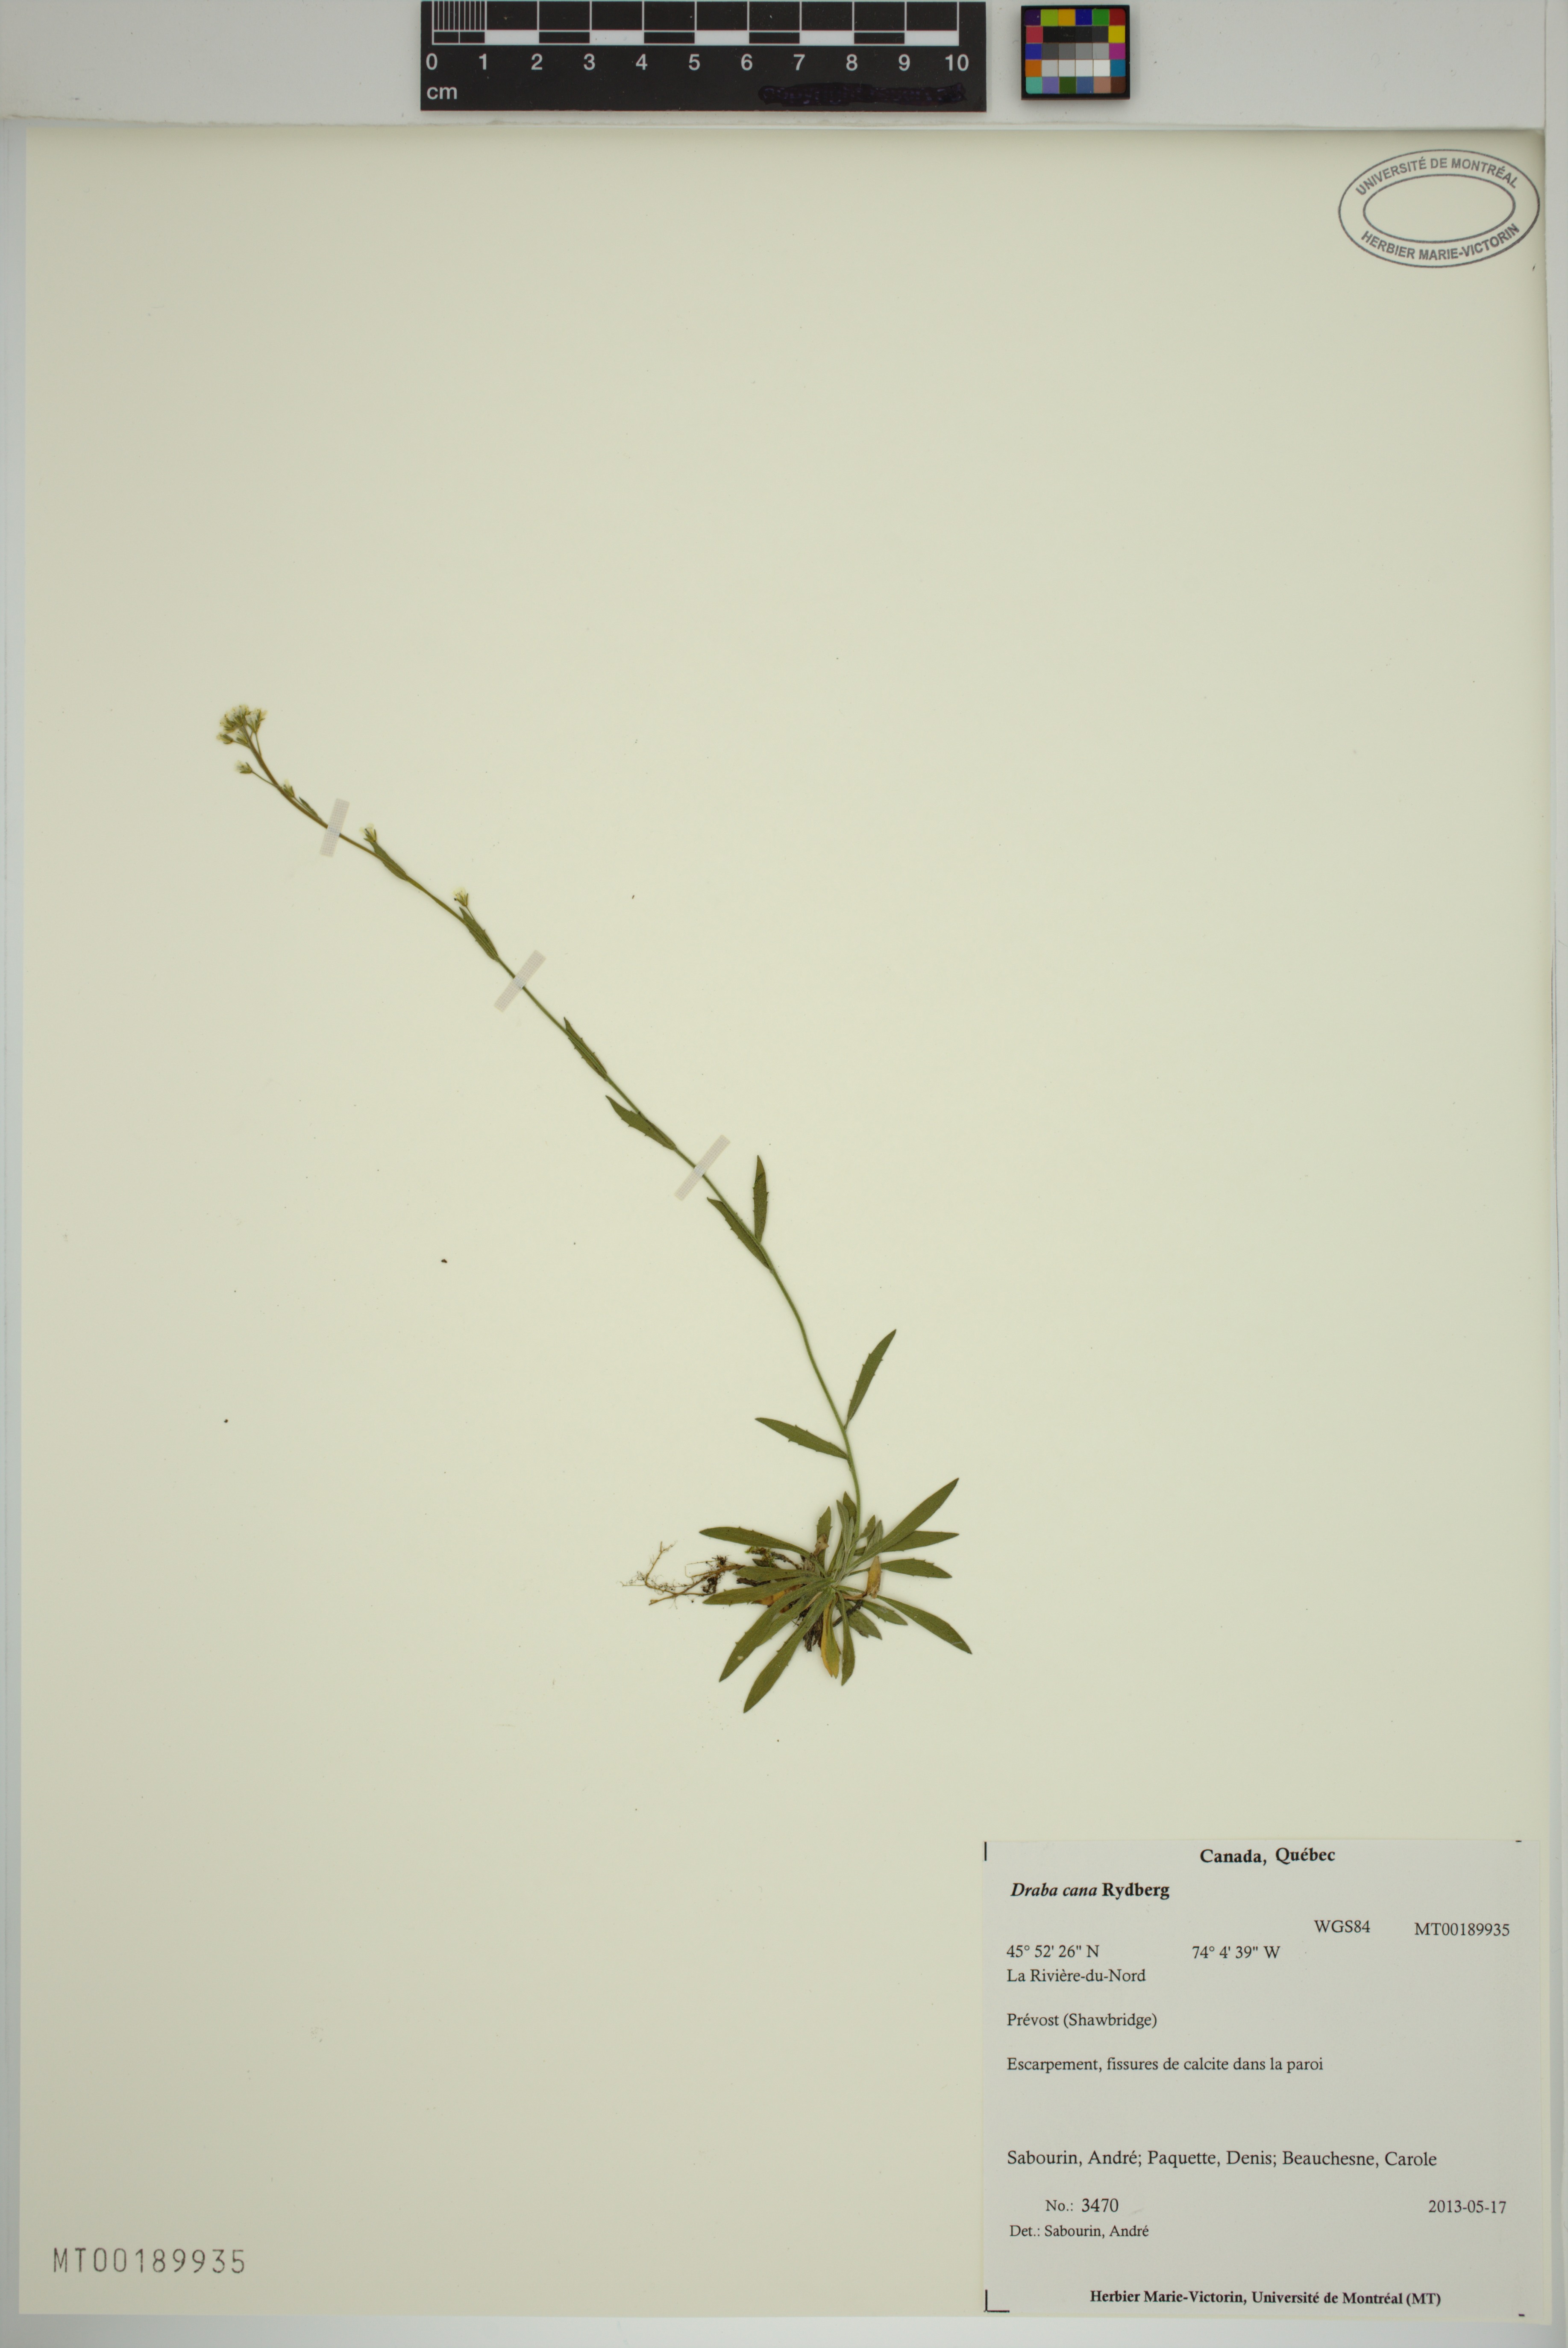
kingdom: Plantae
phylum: Tracheophyta
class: Magnoliopsida
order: Brassicales
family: Brassicaceae
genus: Draba
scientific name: Draba cana
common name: Hoary draba
